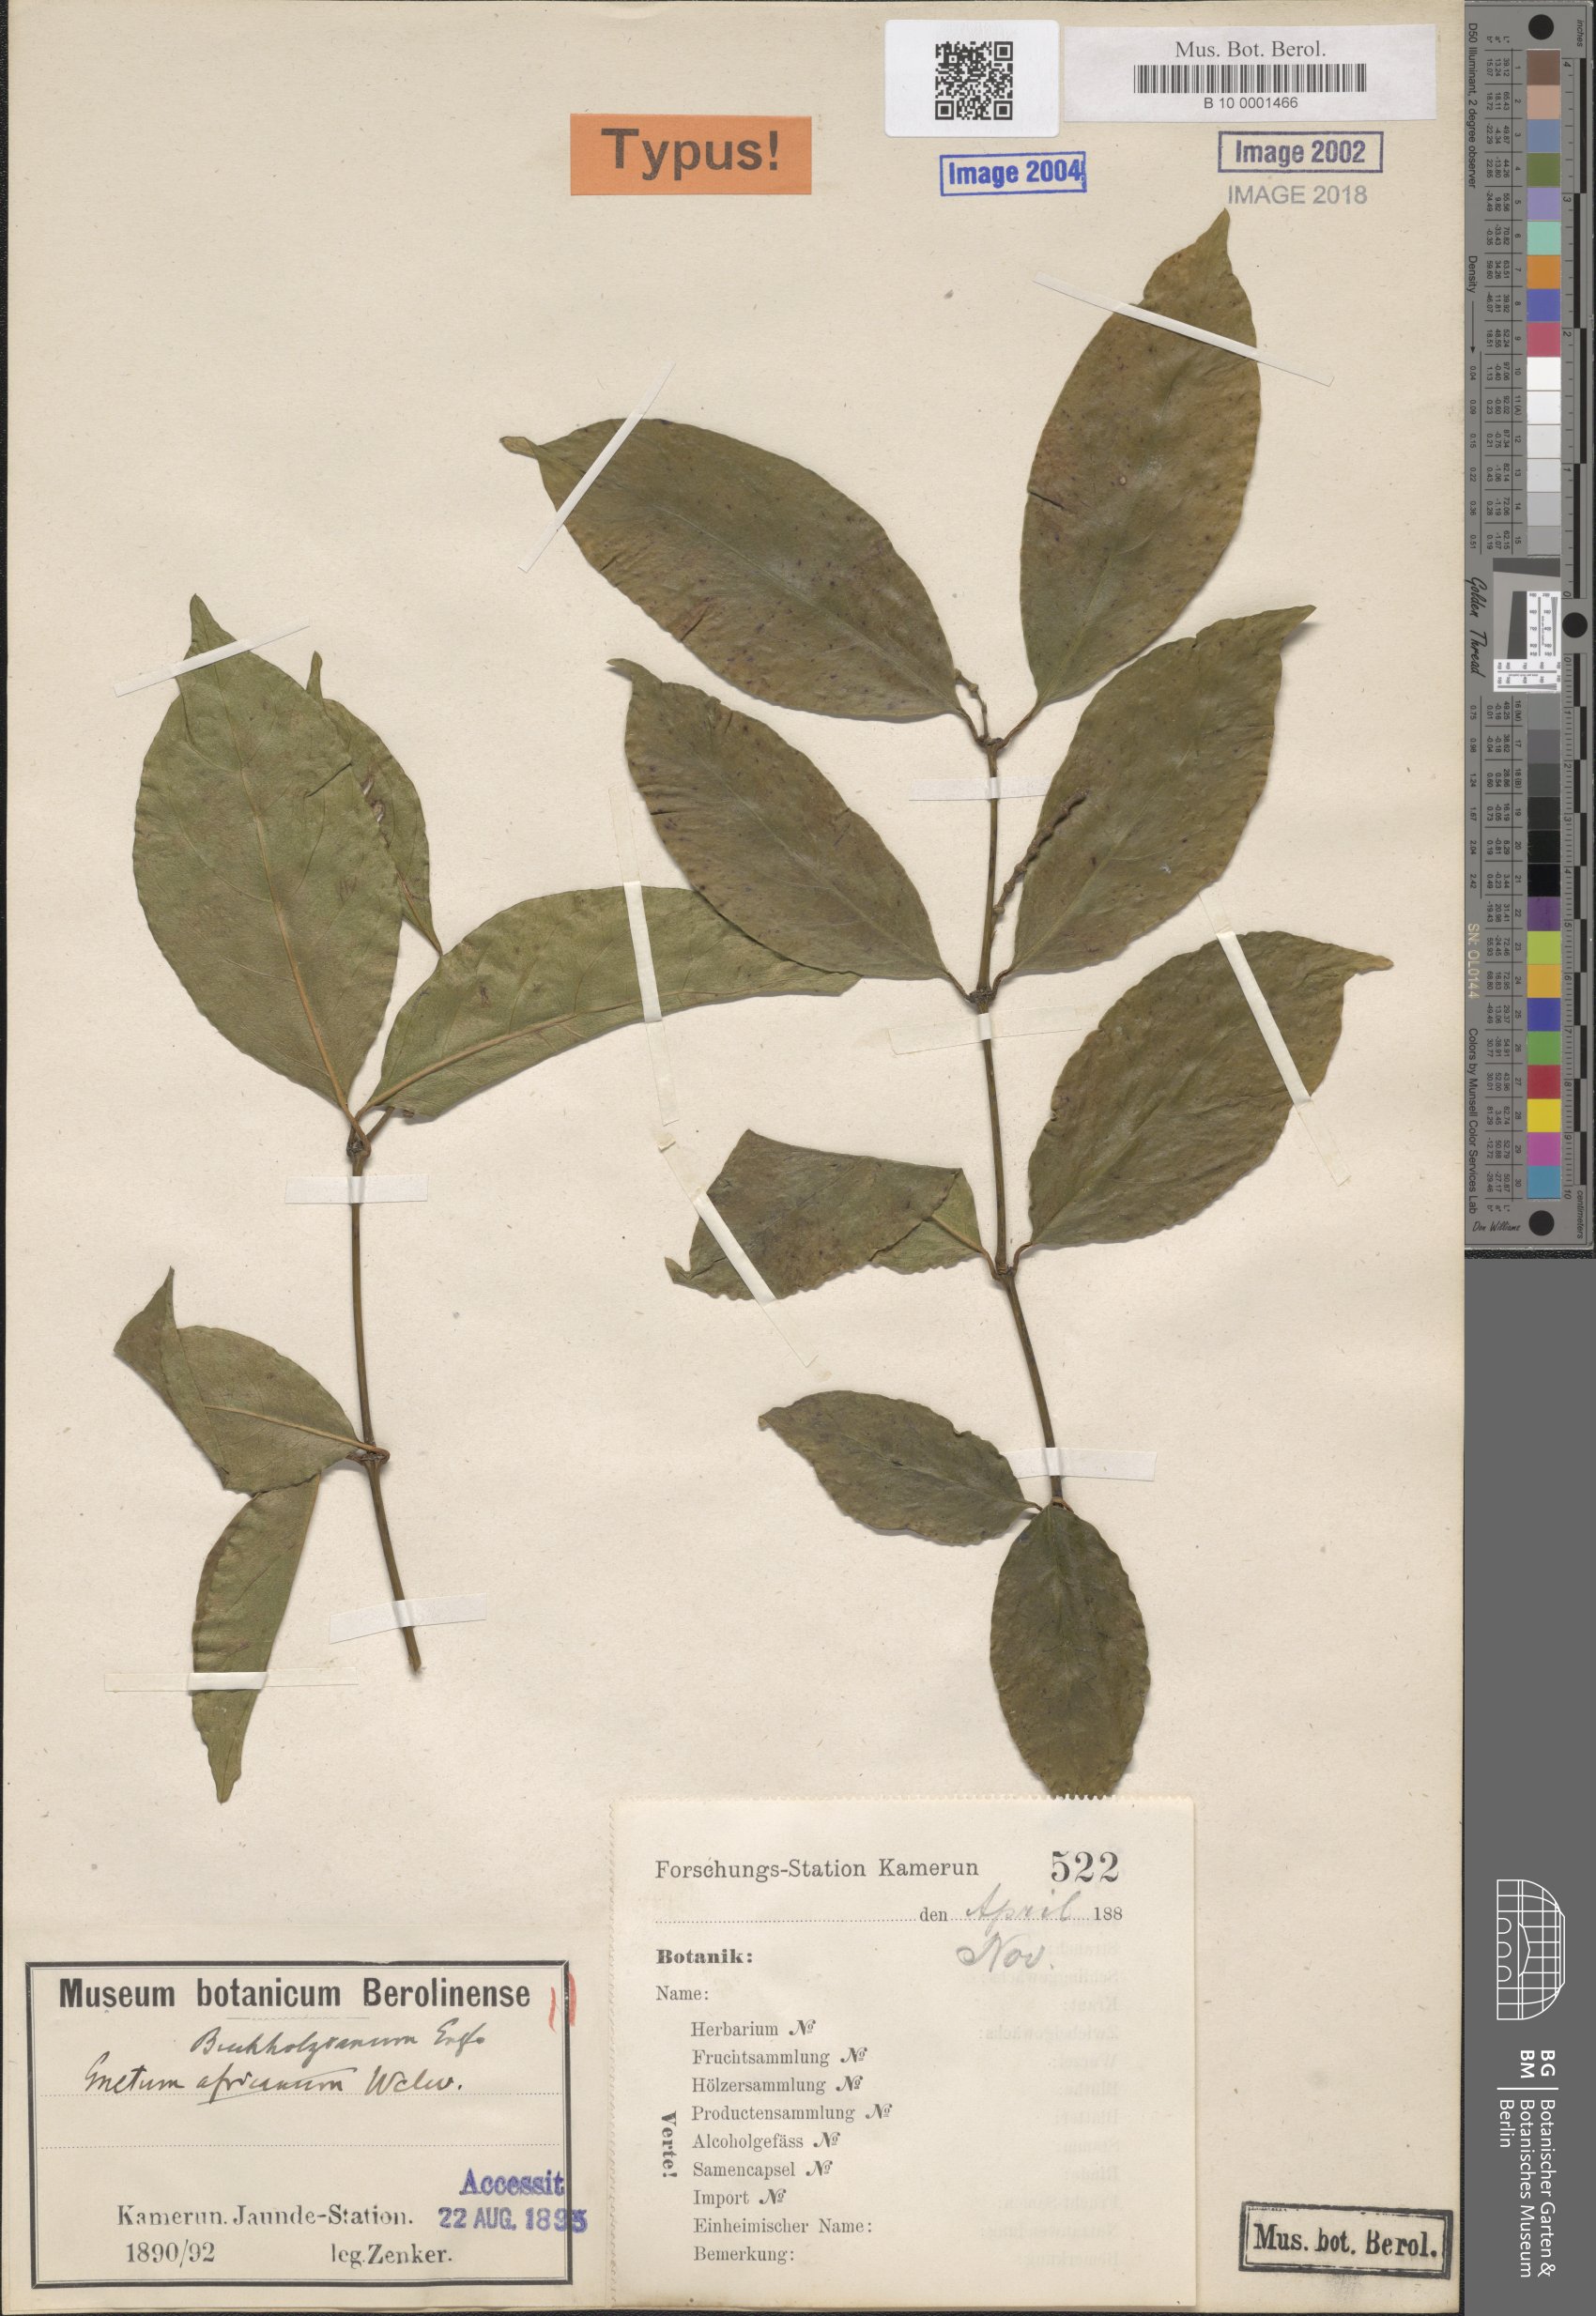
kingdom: Plantae
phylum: Tracheophyta
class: Gnetopsida
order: Gnetales
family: Gnetaceae
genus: Gnetum
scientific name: Gnetum buchholzianum
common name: Eru
